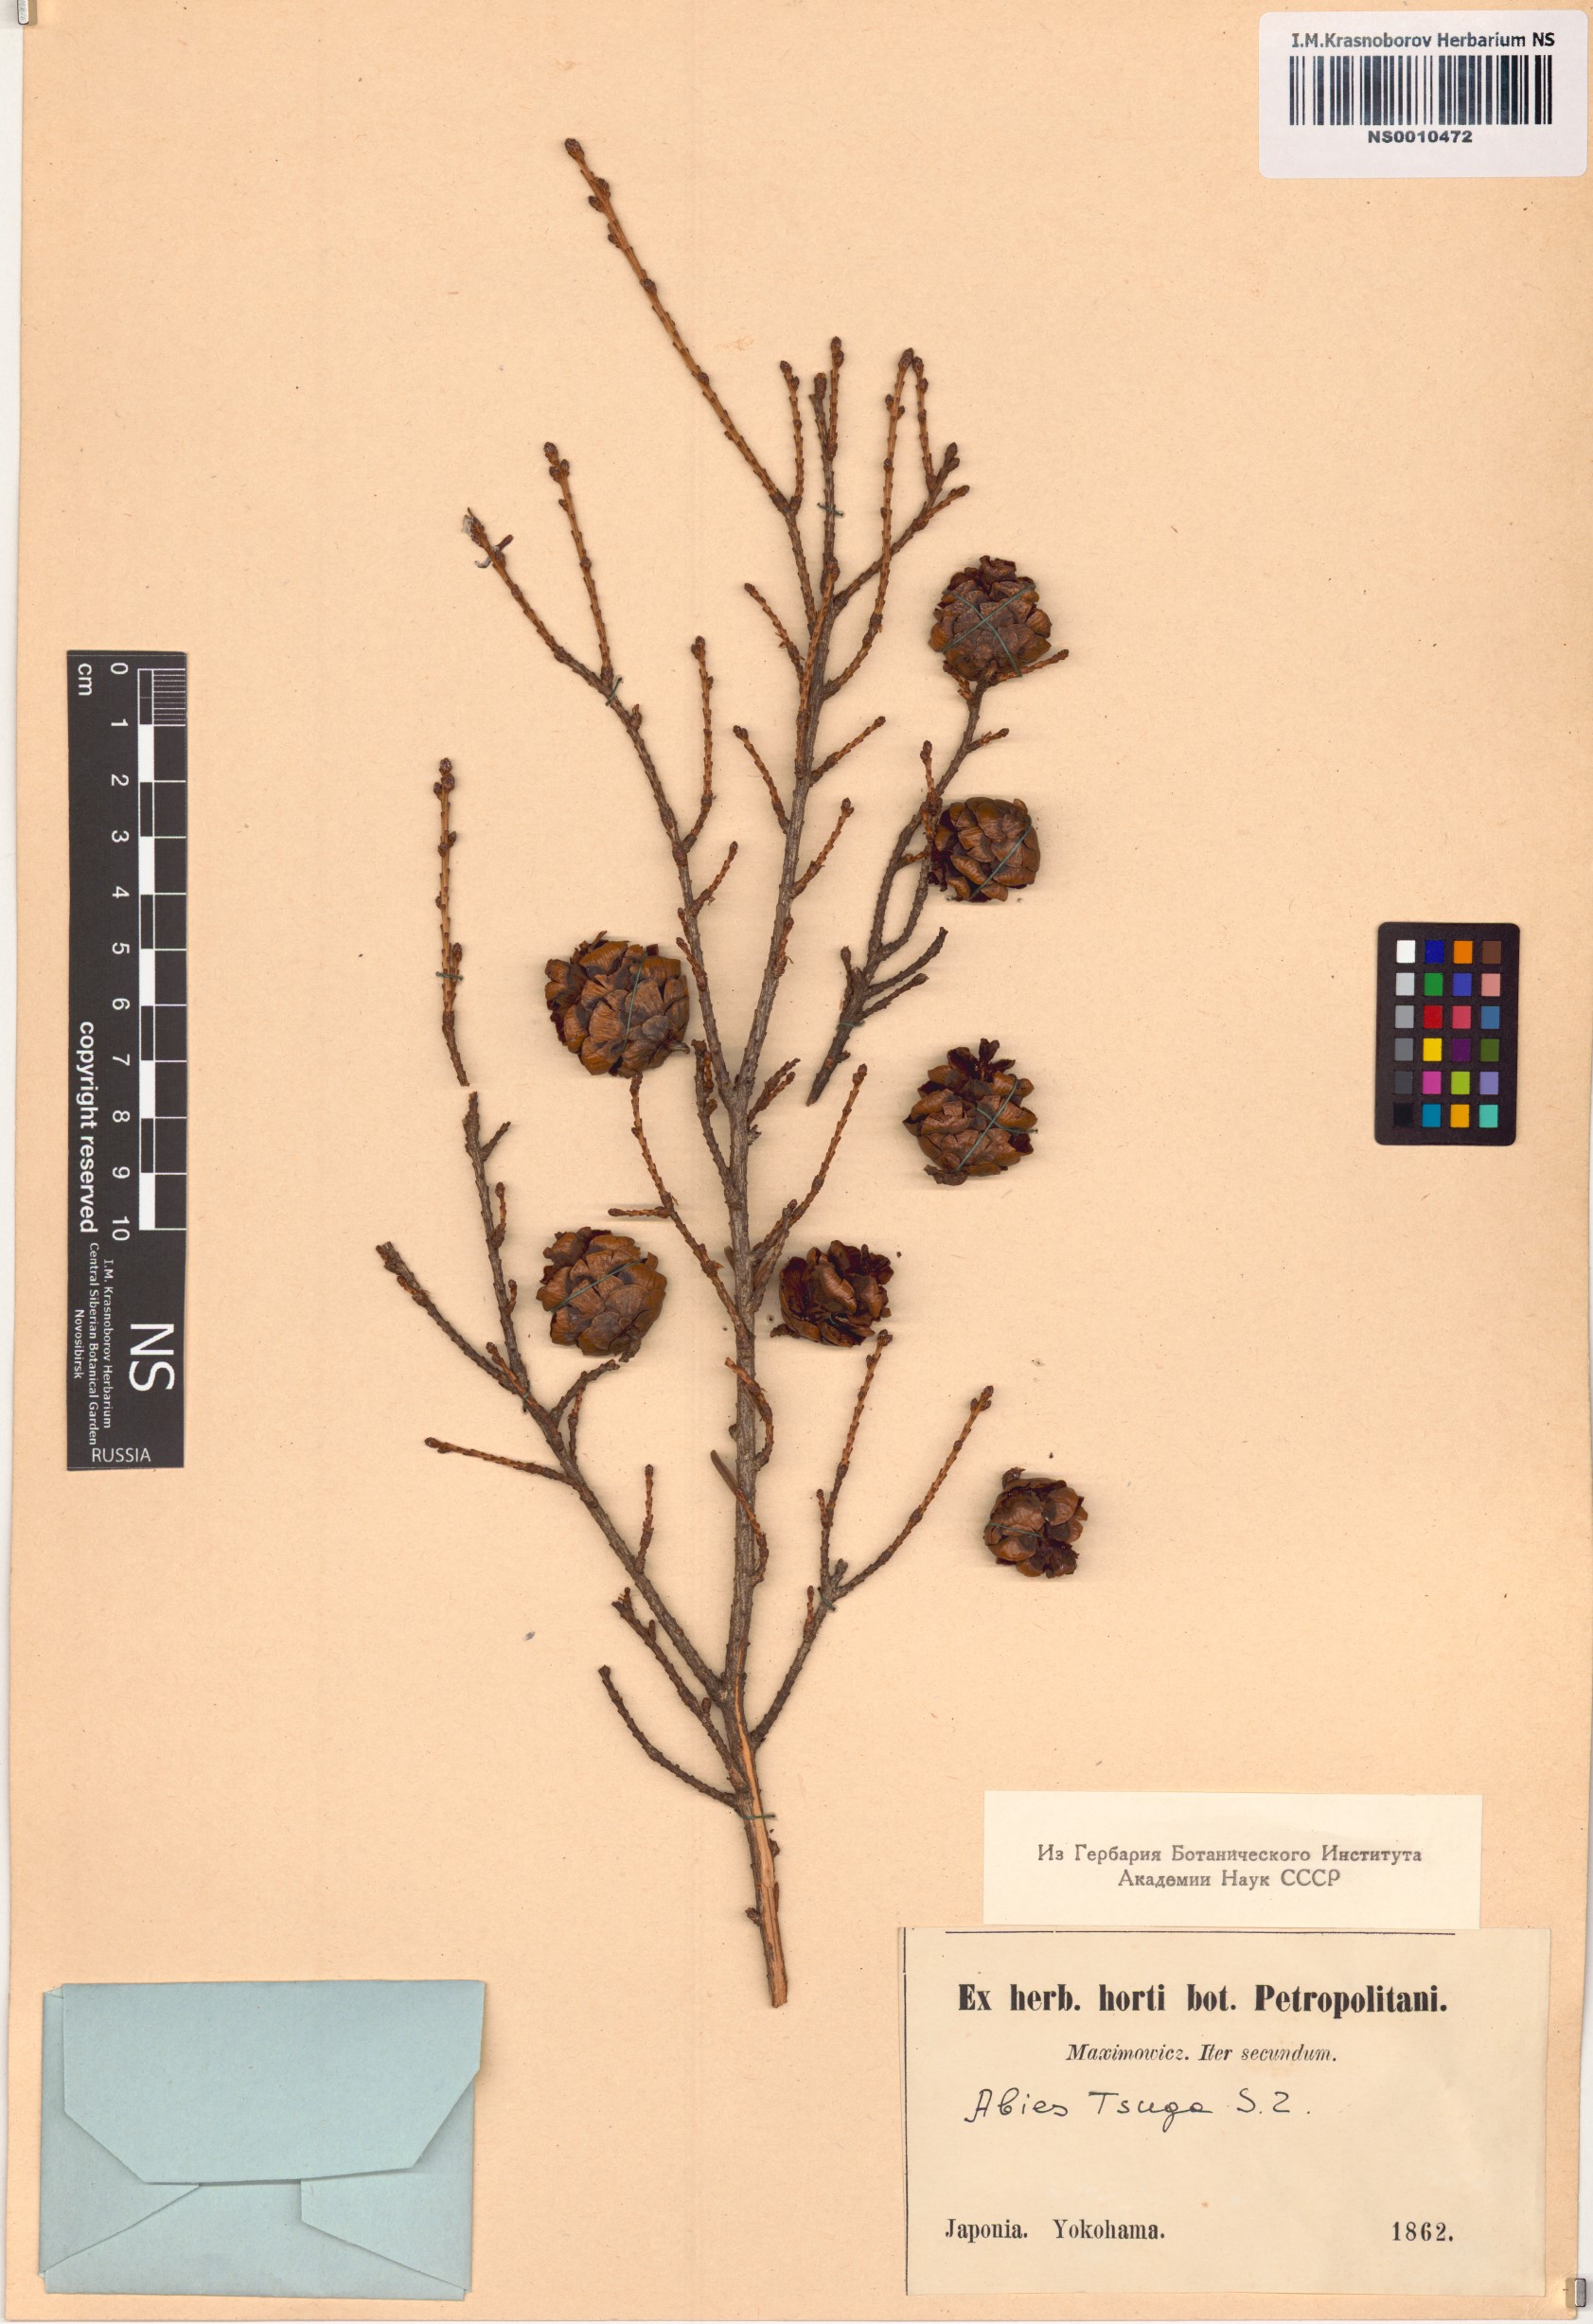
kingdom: Plantae
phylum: Tracheophyta
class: Pinopsida
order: Pinales
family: Pinaceae
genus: Tsuga
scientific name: Tsuga sieboldii
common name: Japanese hemlock
